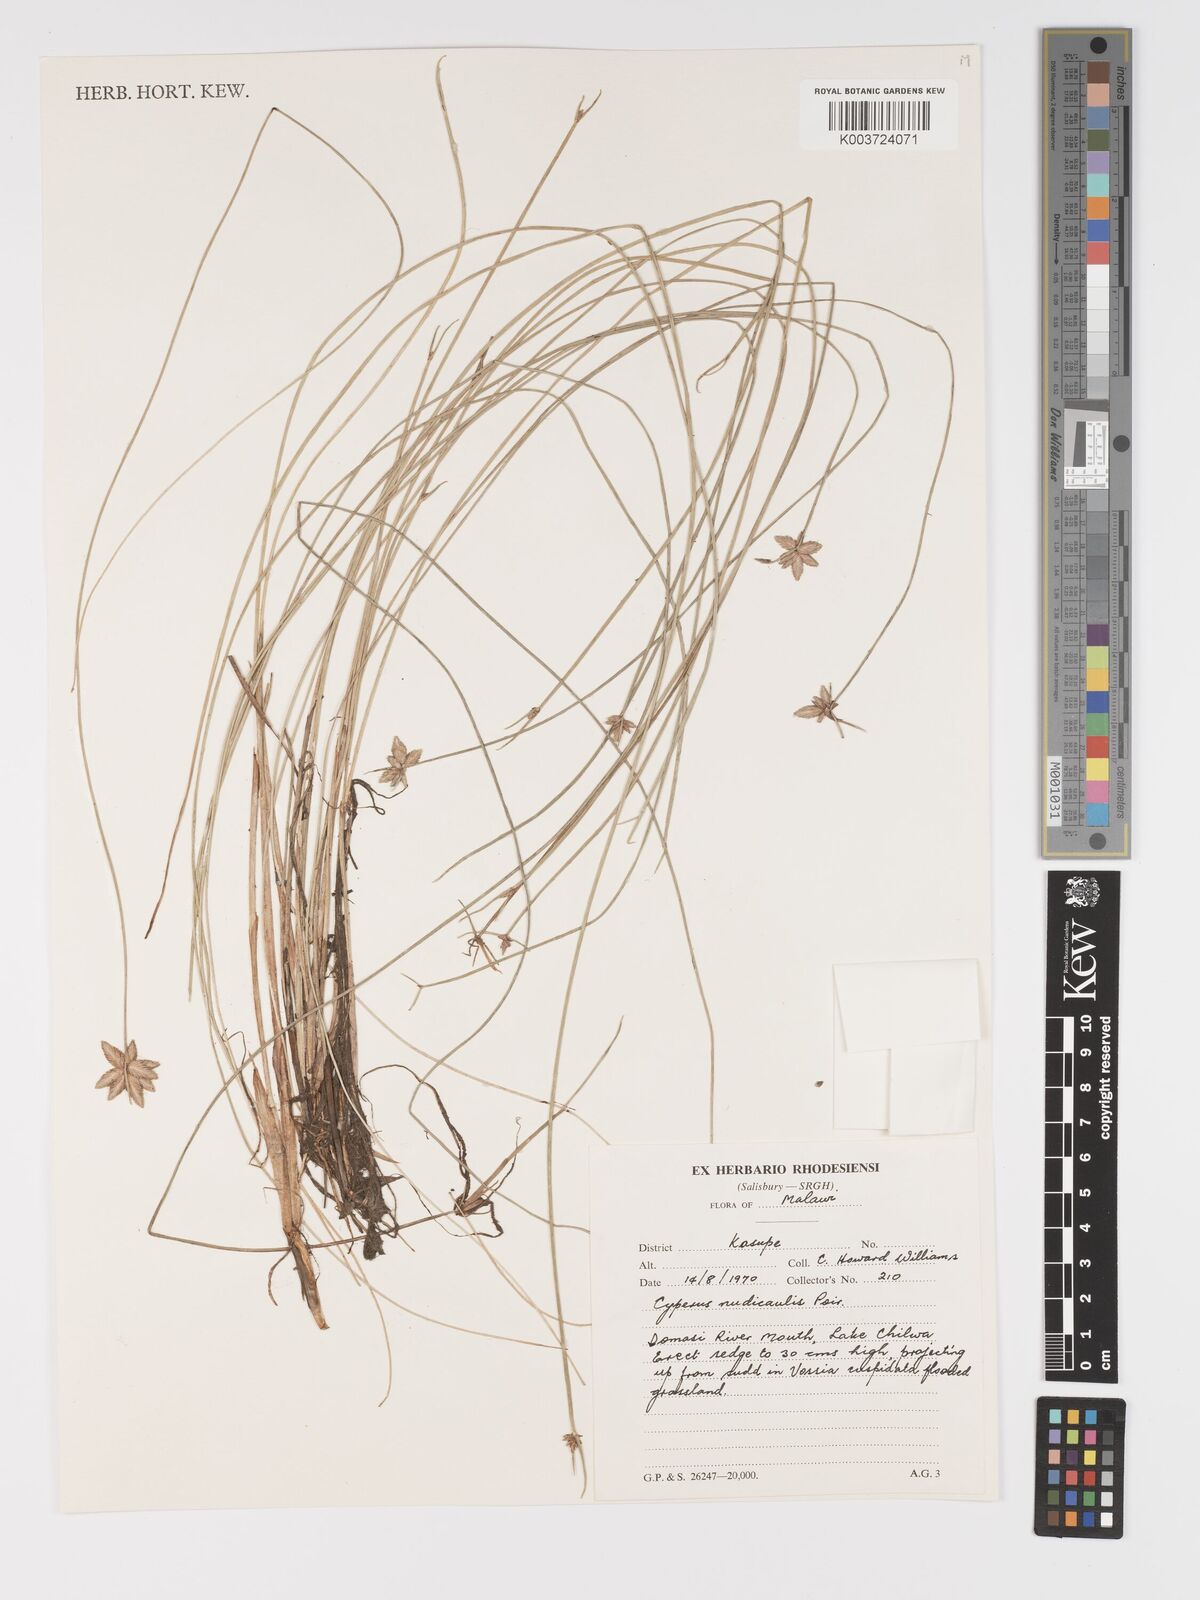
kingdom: Plantae
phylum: Tracheophyta
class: Liliopsida
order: Poales
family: Cyperaceae
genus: Cyperus
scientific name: Cyperus compressus
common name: Poorland flatsedge
